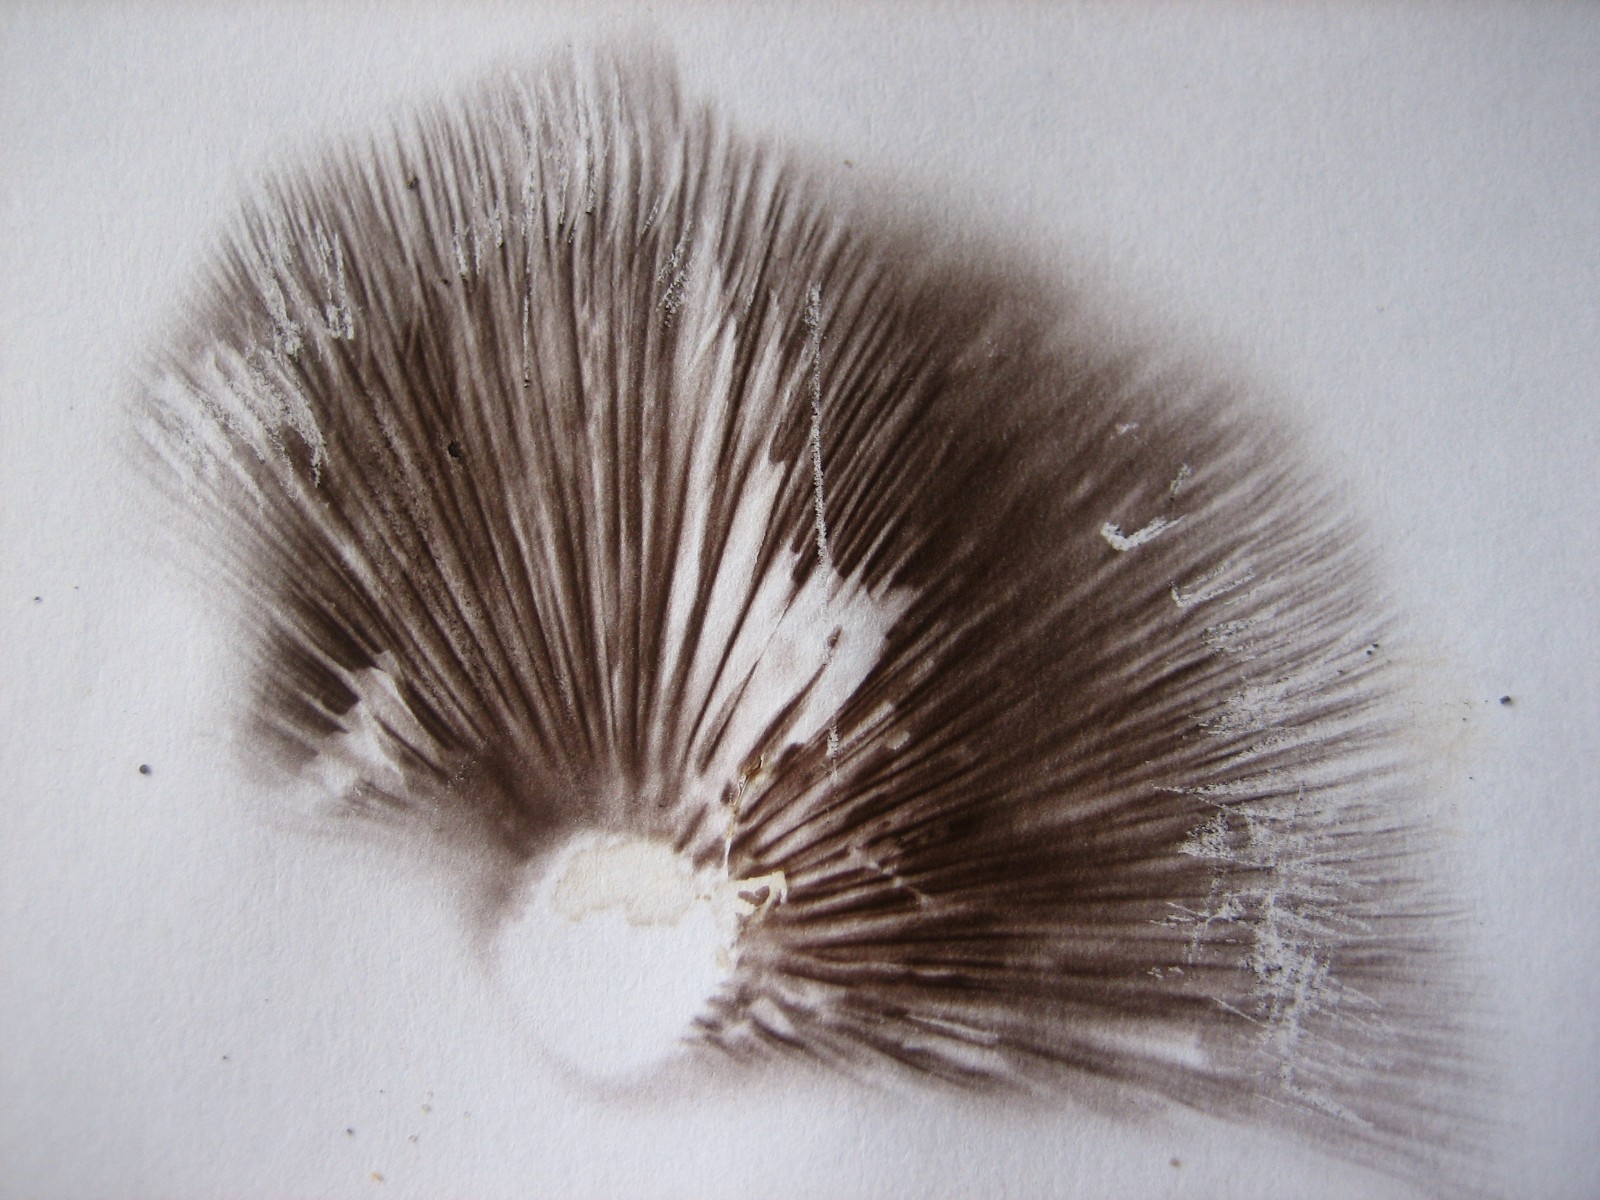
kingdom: Fungi
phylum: Basidiomycota
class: Agaricomycetes
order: Agaricales
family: Psathyrellaceae
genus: Psathyrella
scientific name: Psathyrella
